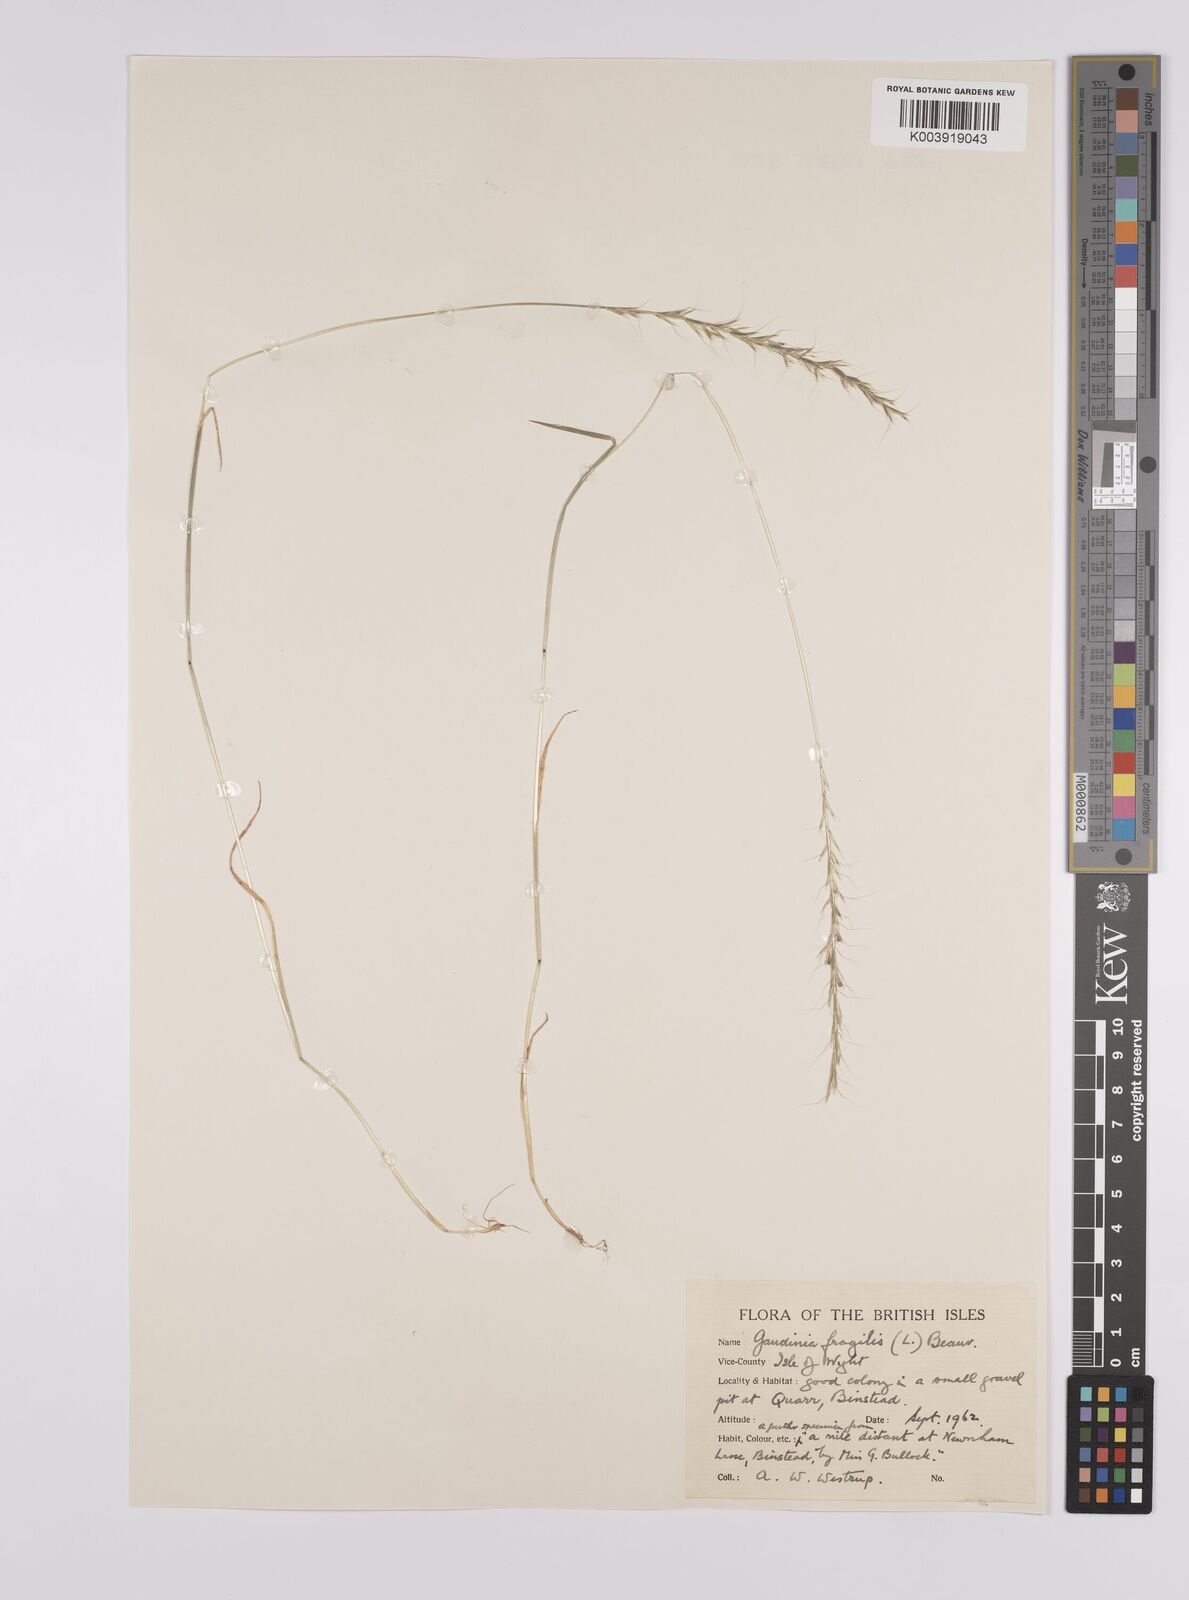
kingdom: Plantae
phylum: Tracheophyta
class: Liliopsida
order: Poales
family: Poaceae
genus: Gaudinia
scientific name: Gaudinia fragilis
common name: French oat-grass
